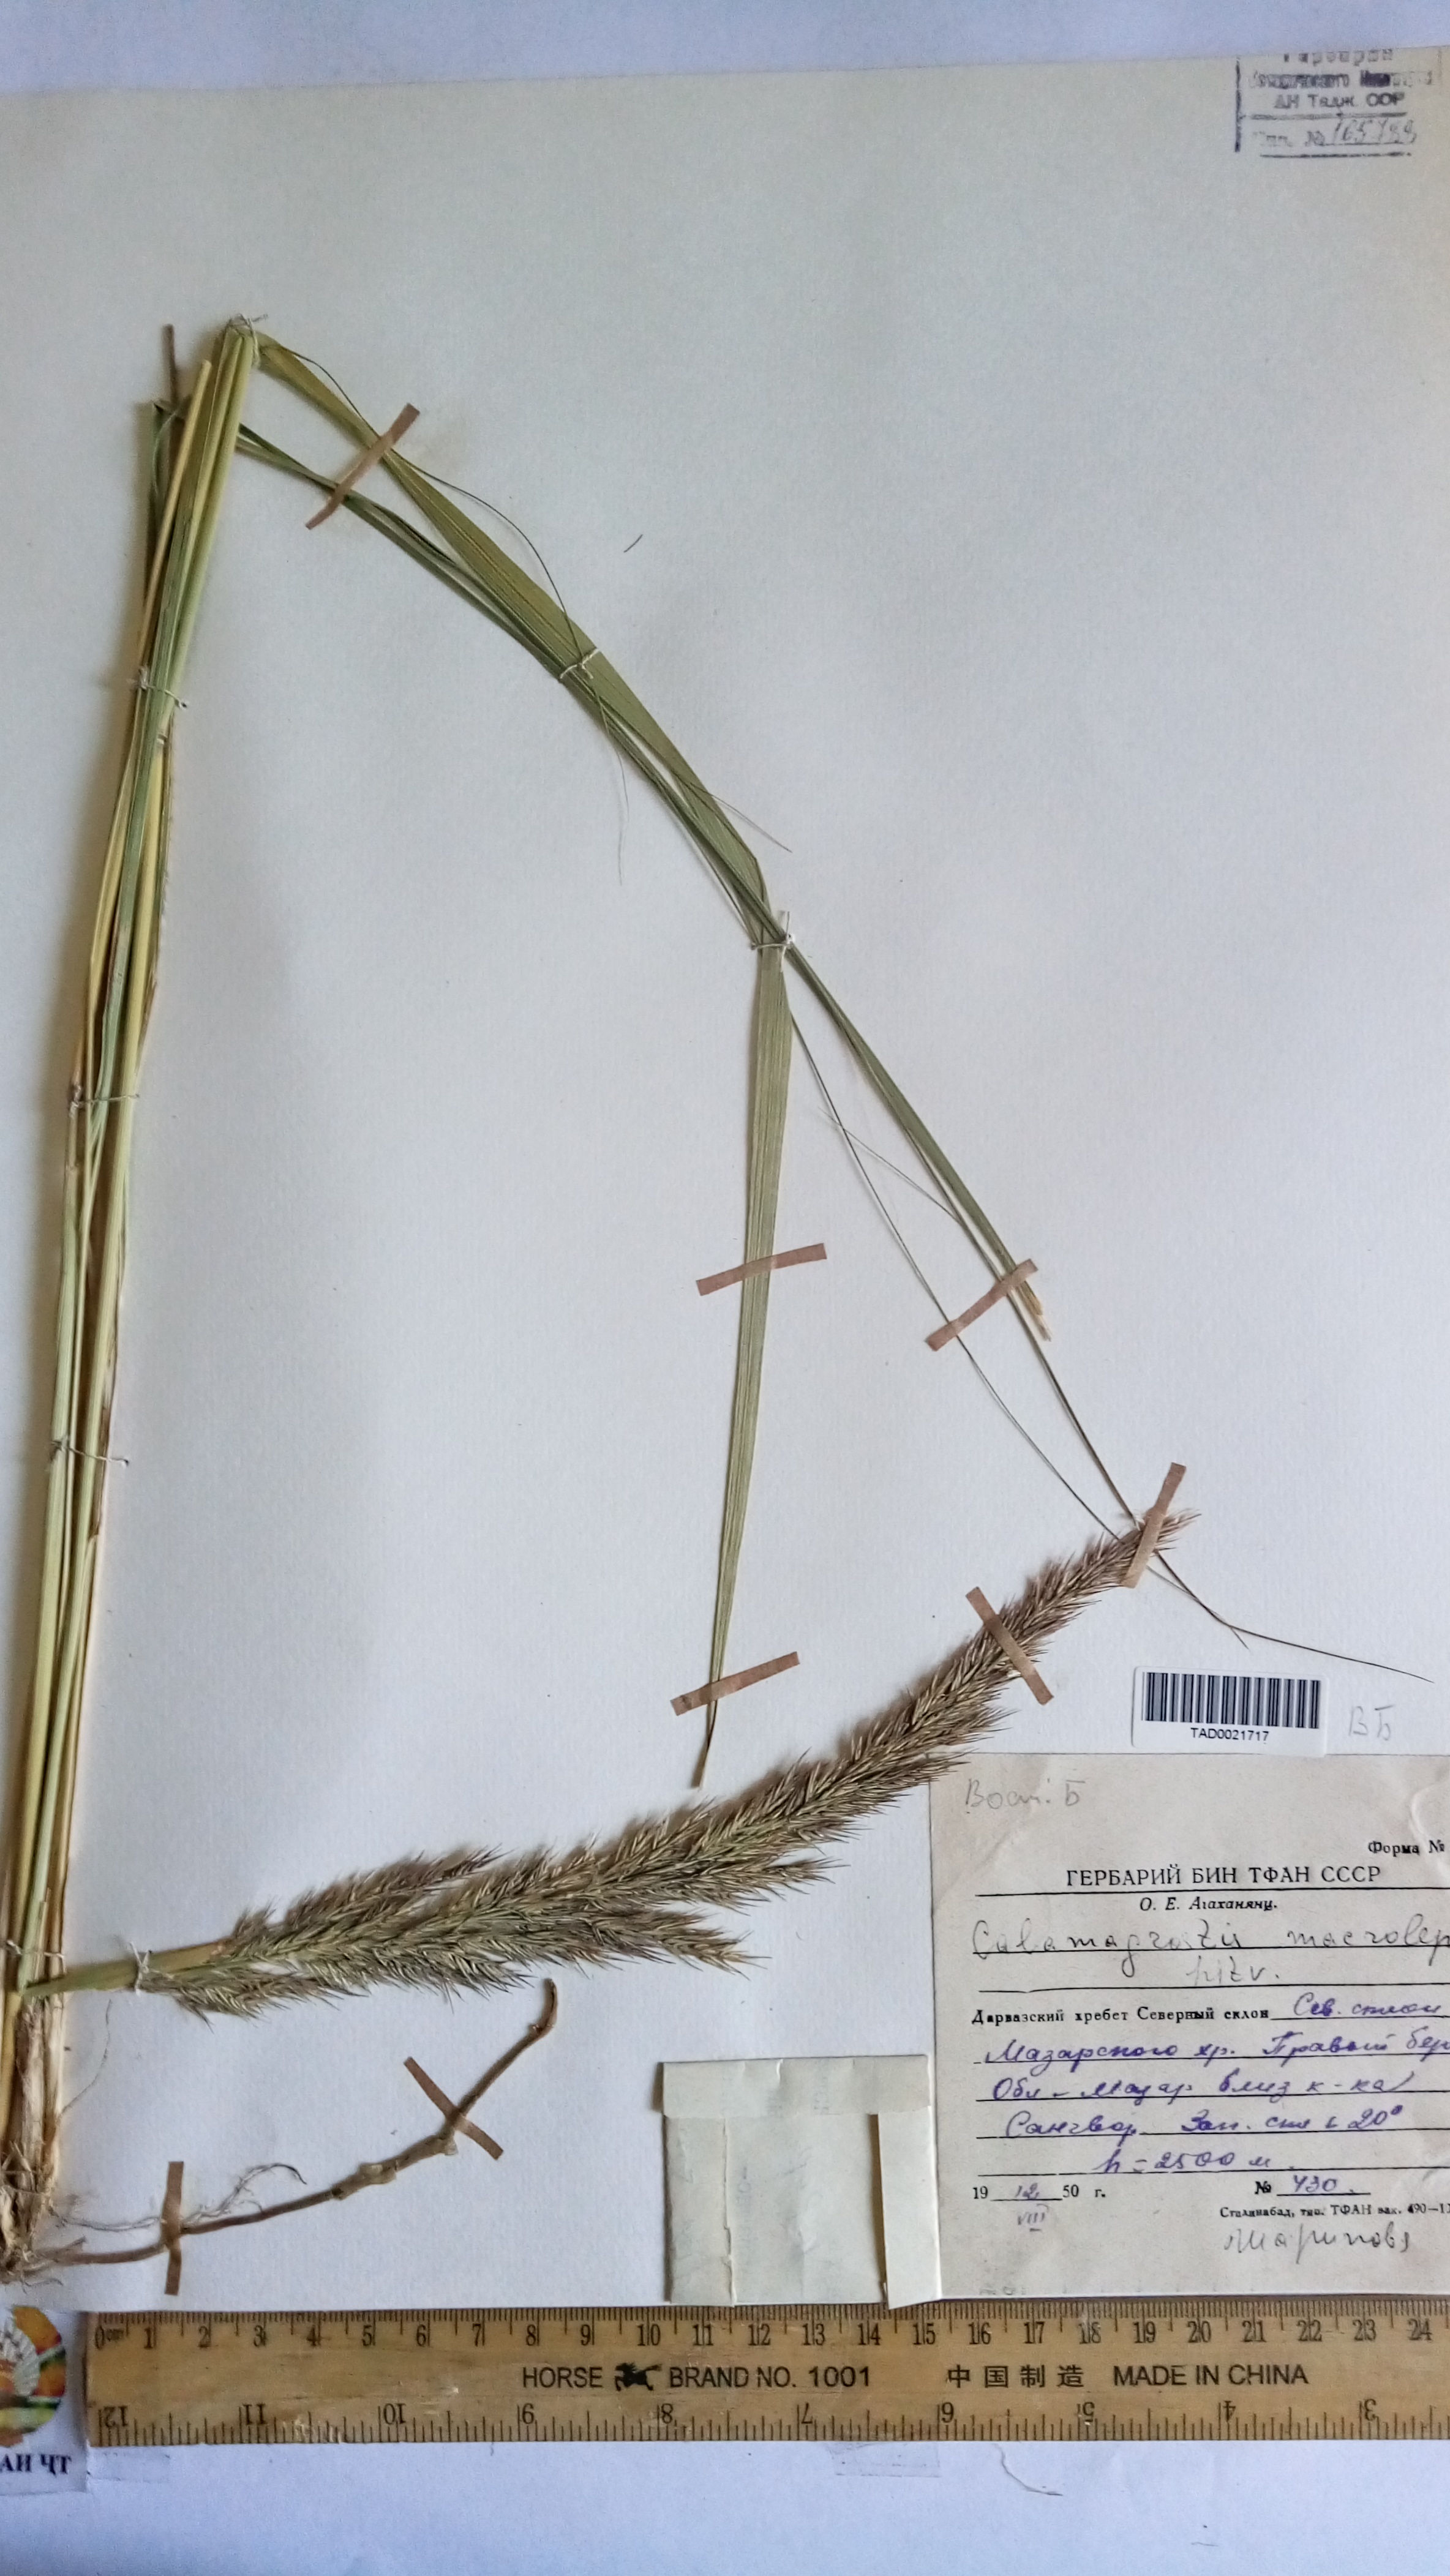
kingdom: Plantae
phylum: Tracheophyta
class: Liliopsida
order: Poales
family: Poaceae
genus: Calamagrostis
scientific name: Calamagrostis macrolepis
